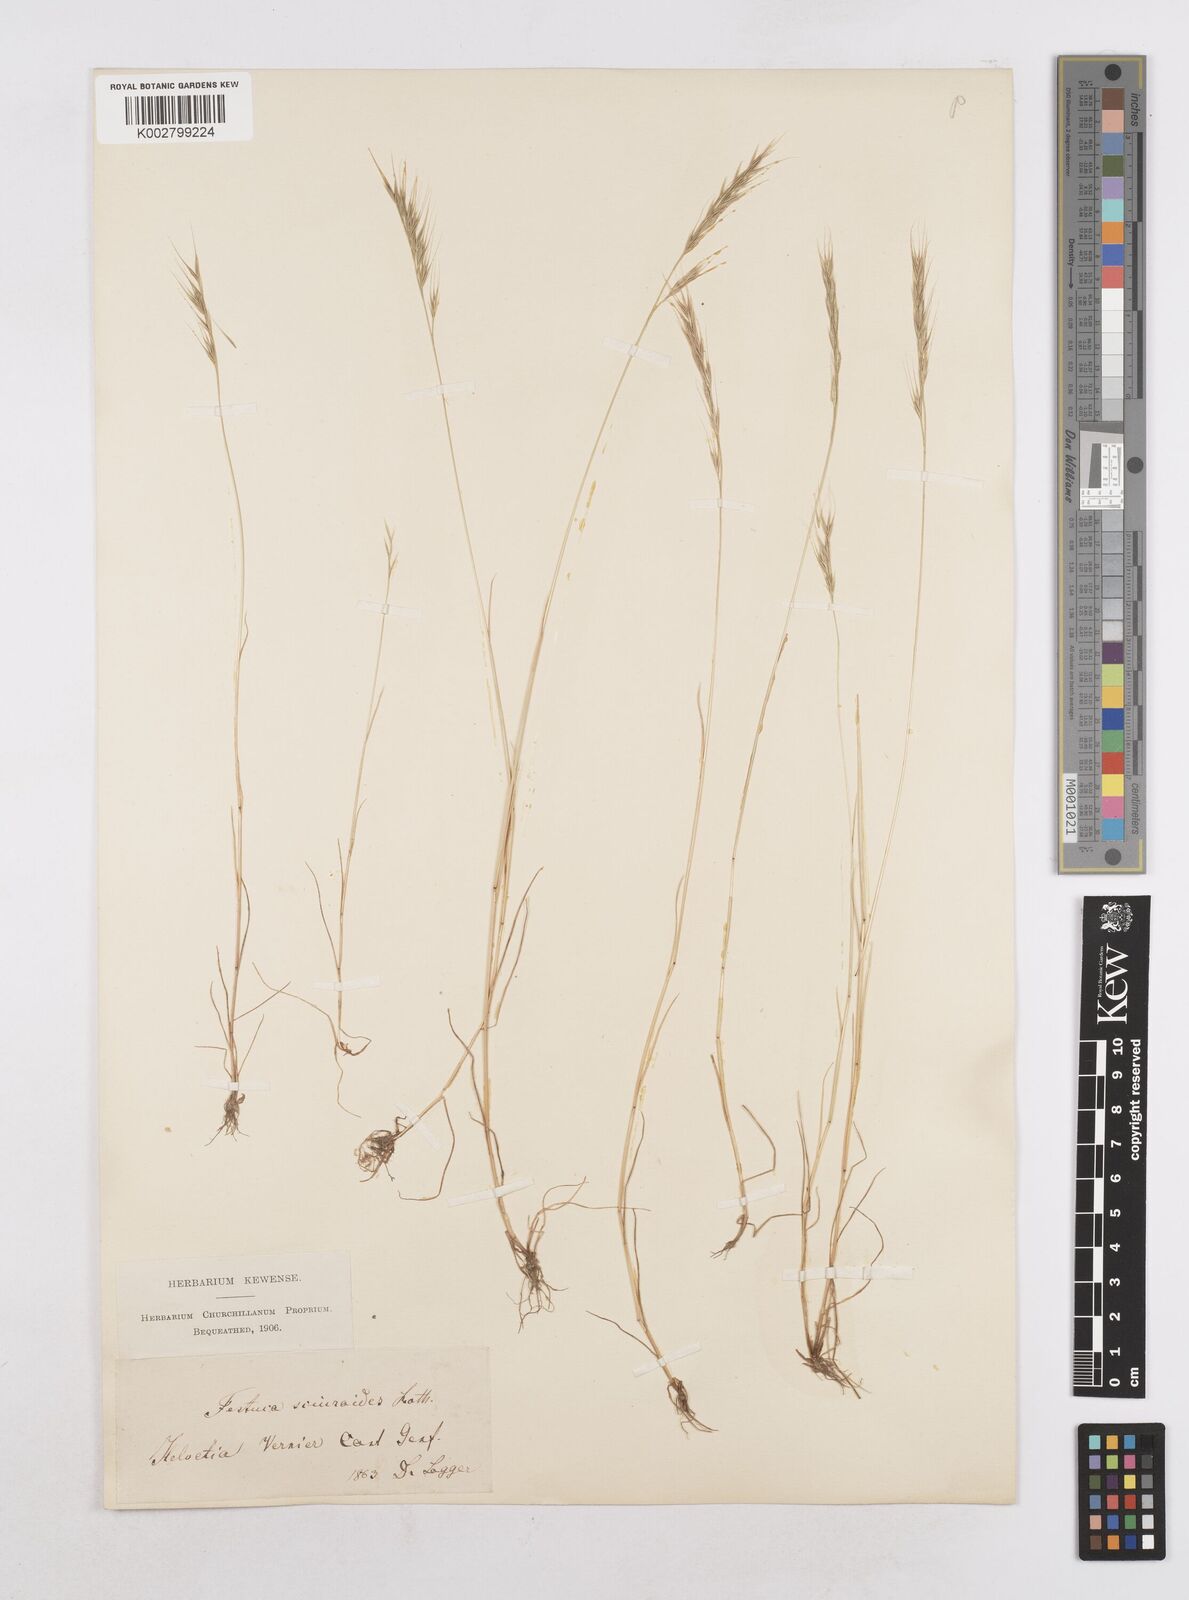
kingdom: Plantae
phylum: Tracheophyta
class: Liliopsida
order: Poales
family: Poaceae
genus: Festuca
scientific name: Festuca bromoides
